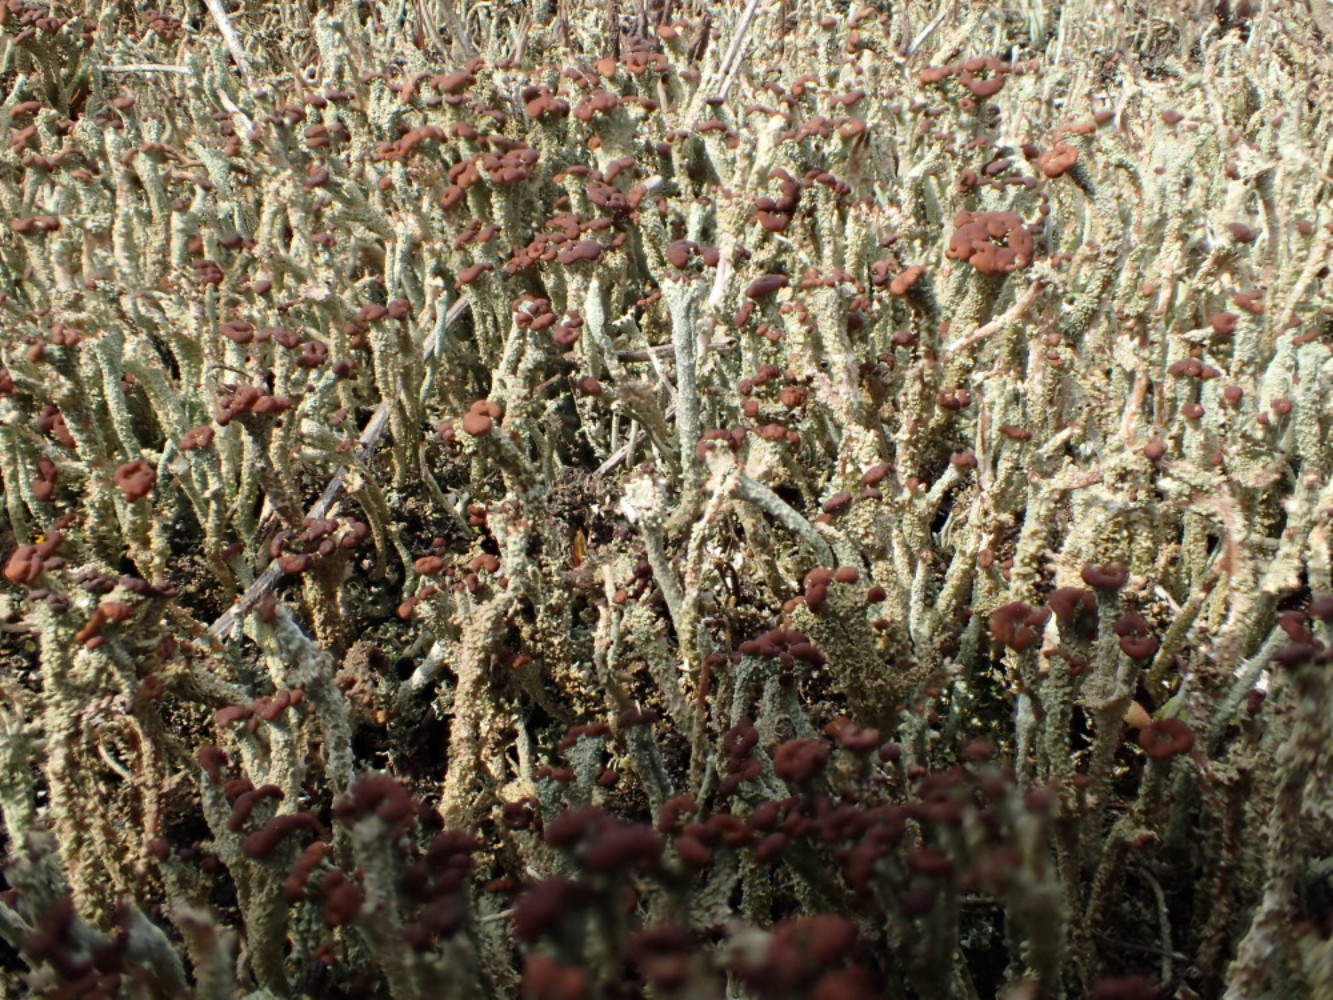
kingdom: Fungi
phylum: Ascomycota
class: Lecanoromycetes
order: Lecanorales
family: Cladoniaceae
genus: Cladonia
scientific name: Cladonia ramulosa
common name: kliddet bægerlav
